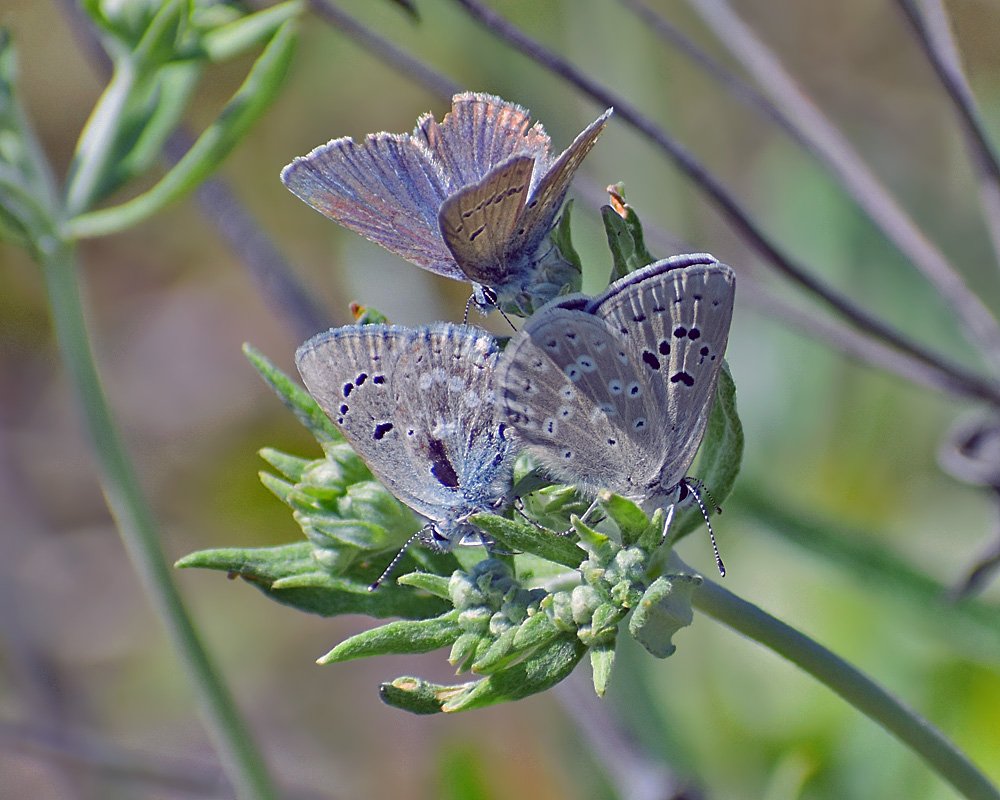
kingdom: Animalia
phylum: Arthropoda
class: Insecta
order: Lepidoptera
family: Lycaenidae
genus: Icaricia
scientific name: Icaricia icarioides
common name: Boisduval's Blue
